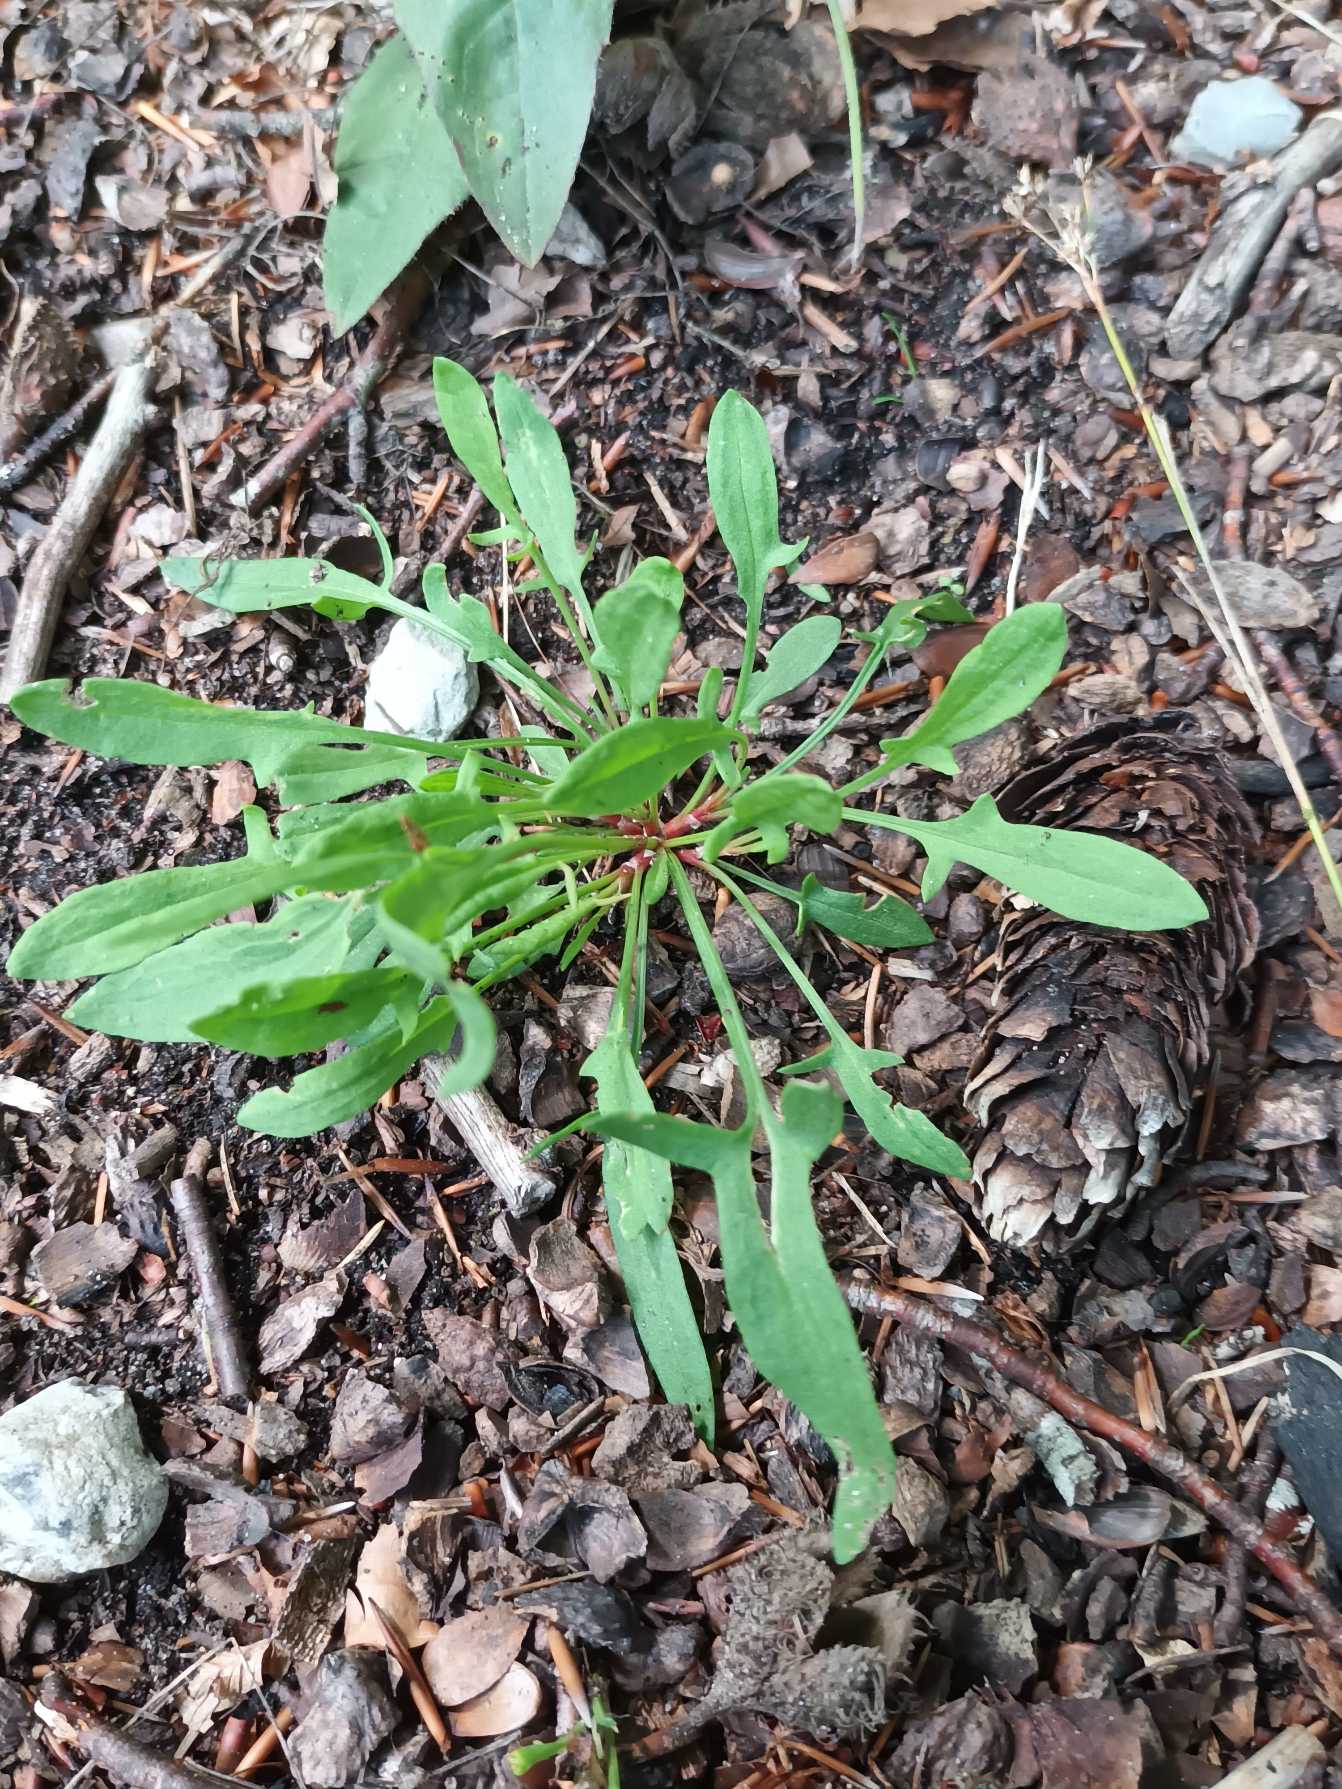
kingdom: Plantae
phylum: Tracheophyta
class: Magnoliopsida
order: Caryophyllales
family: Polygonaceae
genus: Rumex
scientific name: Rumex acetosella
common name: Rødknæ
